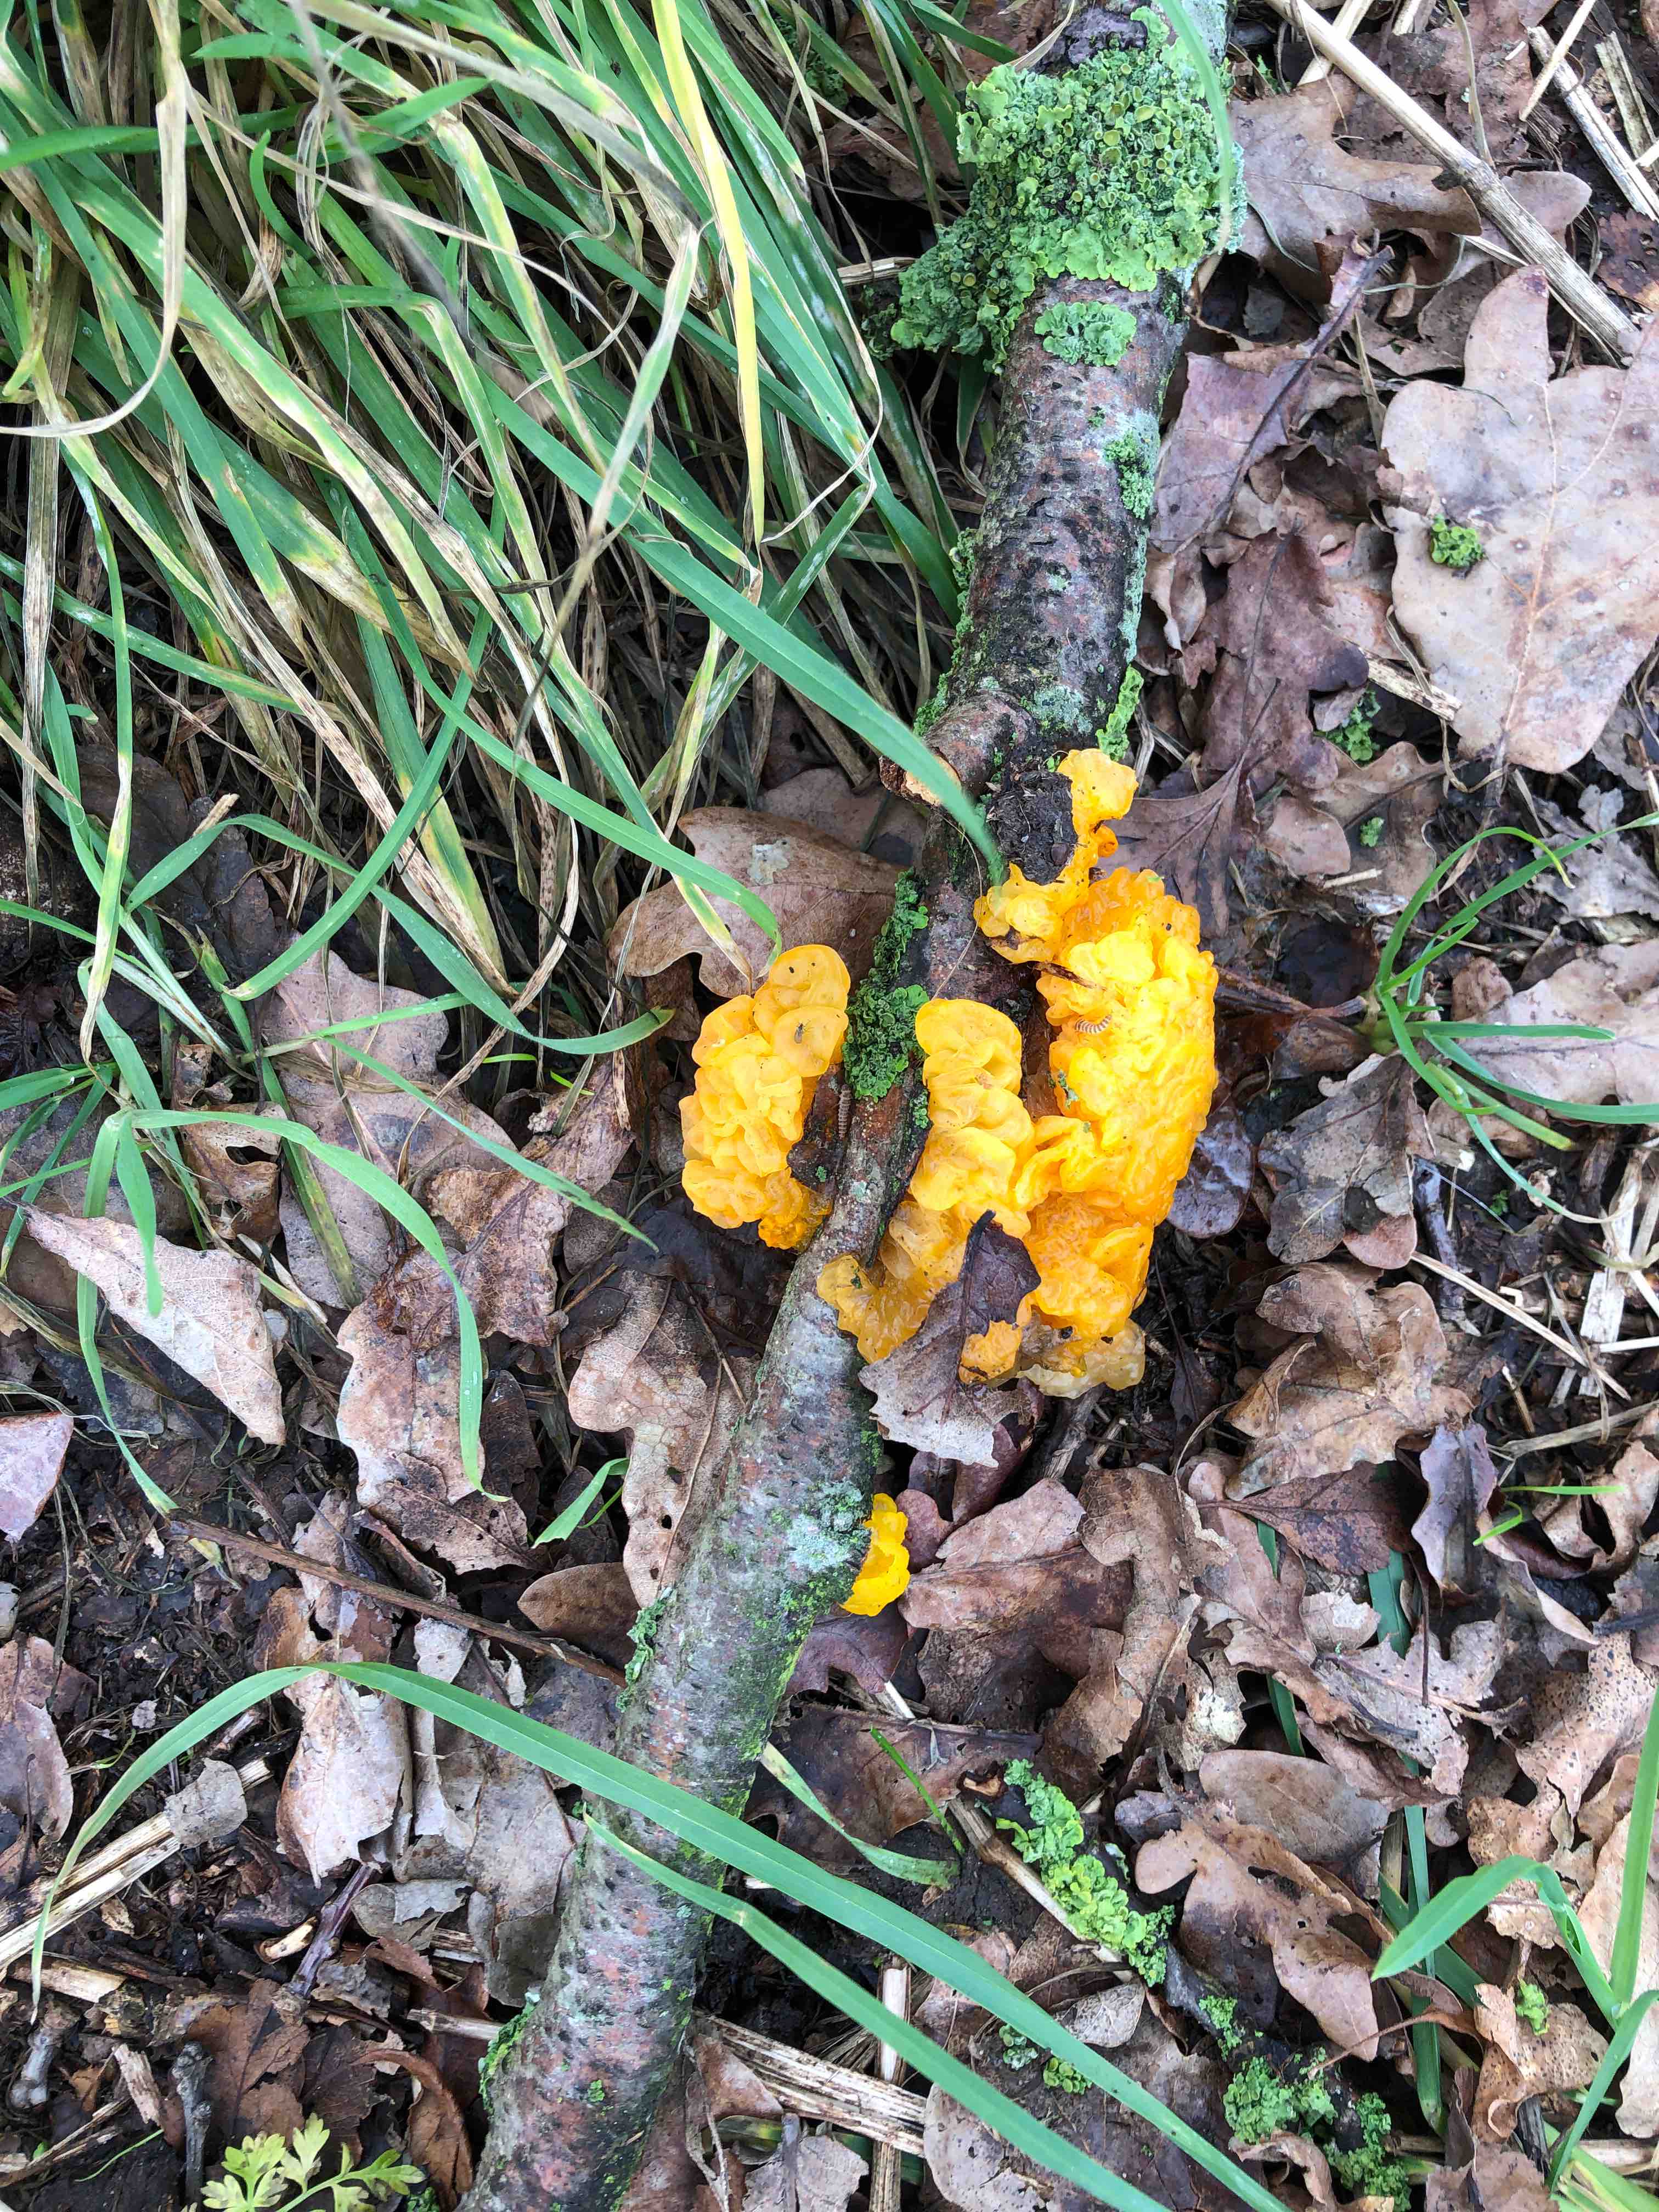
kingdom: Fungi
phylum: Basidiomycota
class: Tremellomycetes
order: Tremellales
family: Tremellaceae
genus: Tremella
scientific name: Tremella mesenterica
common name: gul bævresvamp
